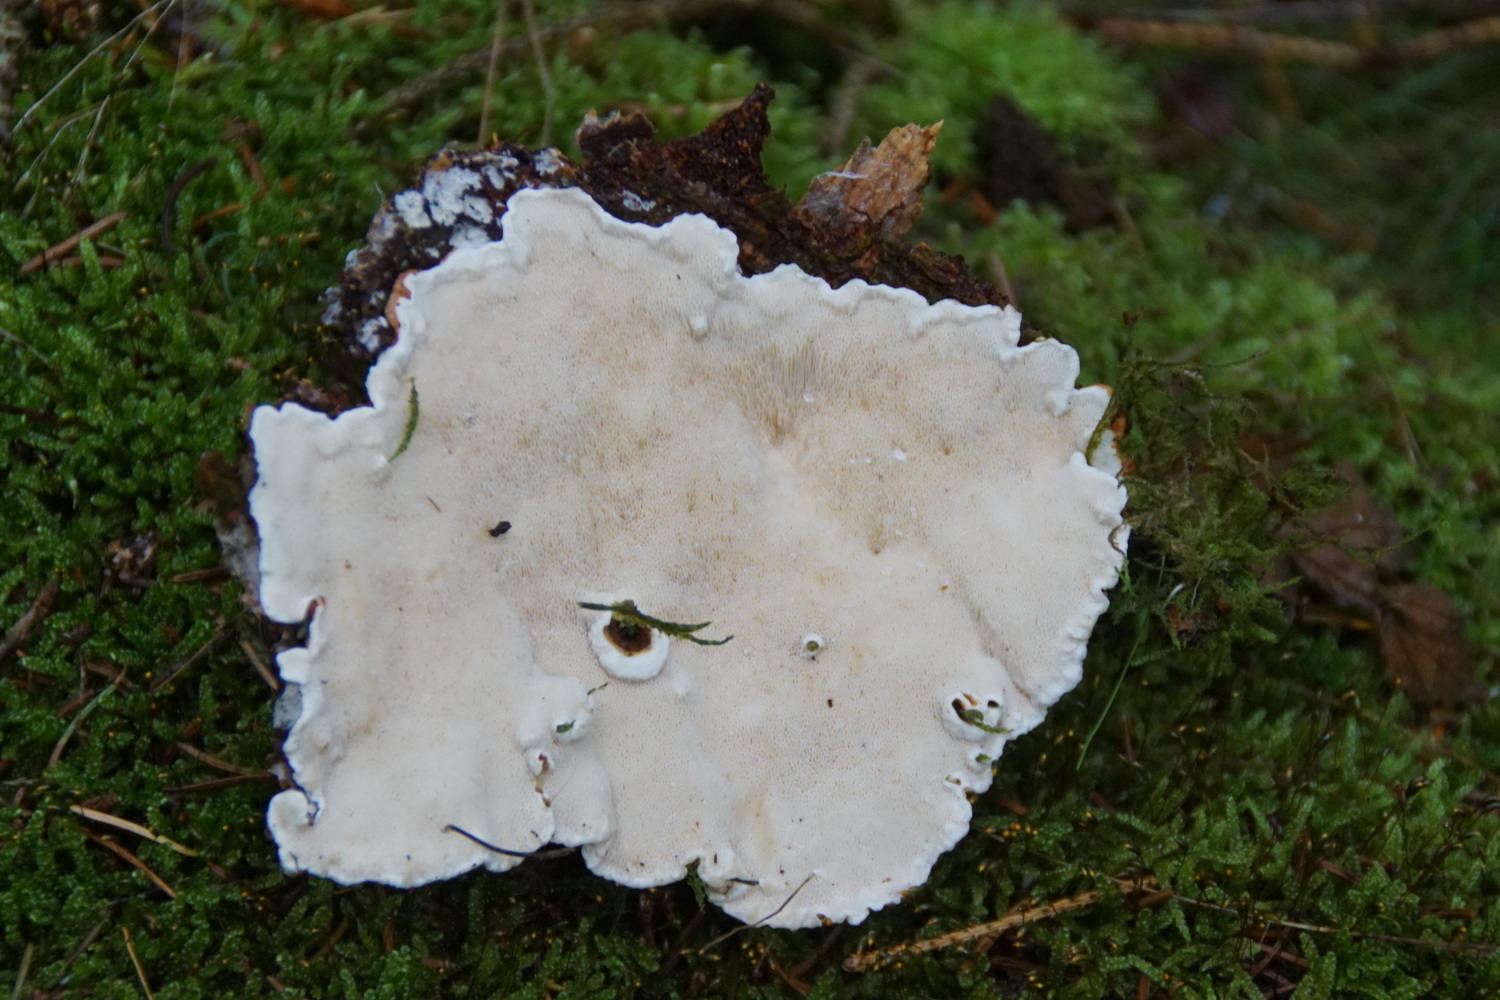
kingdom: Fungi
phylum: Basidiomycota
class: Agaricomycetes
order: Russulales
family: Bondarzewiaceae
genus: Heterobasidion
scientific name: Heterobasidion annosum
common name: almindelig rodfordærver
